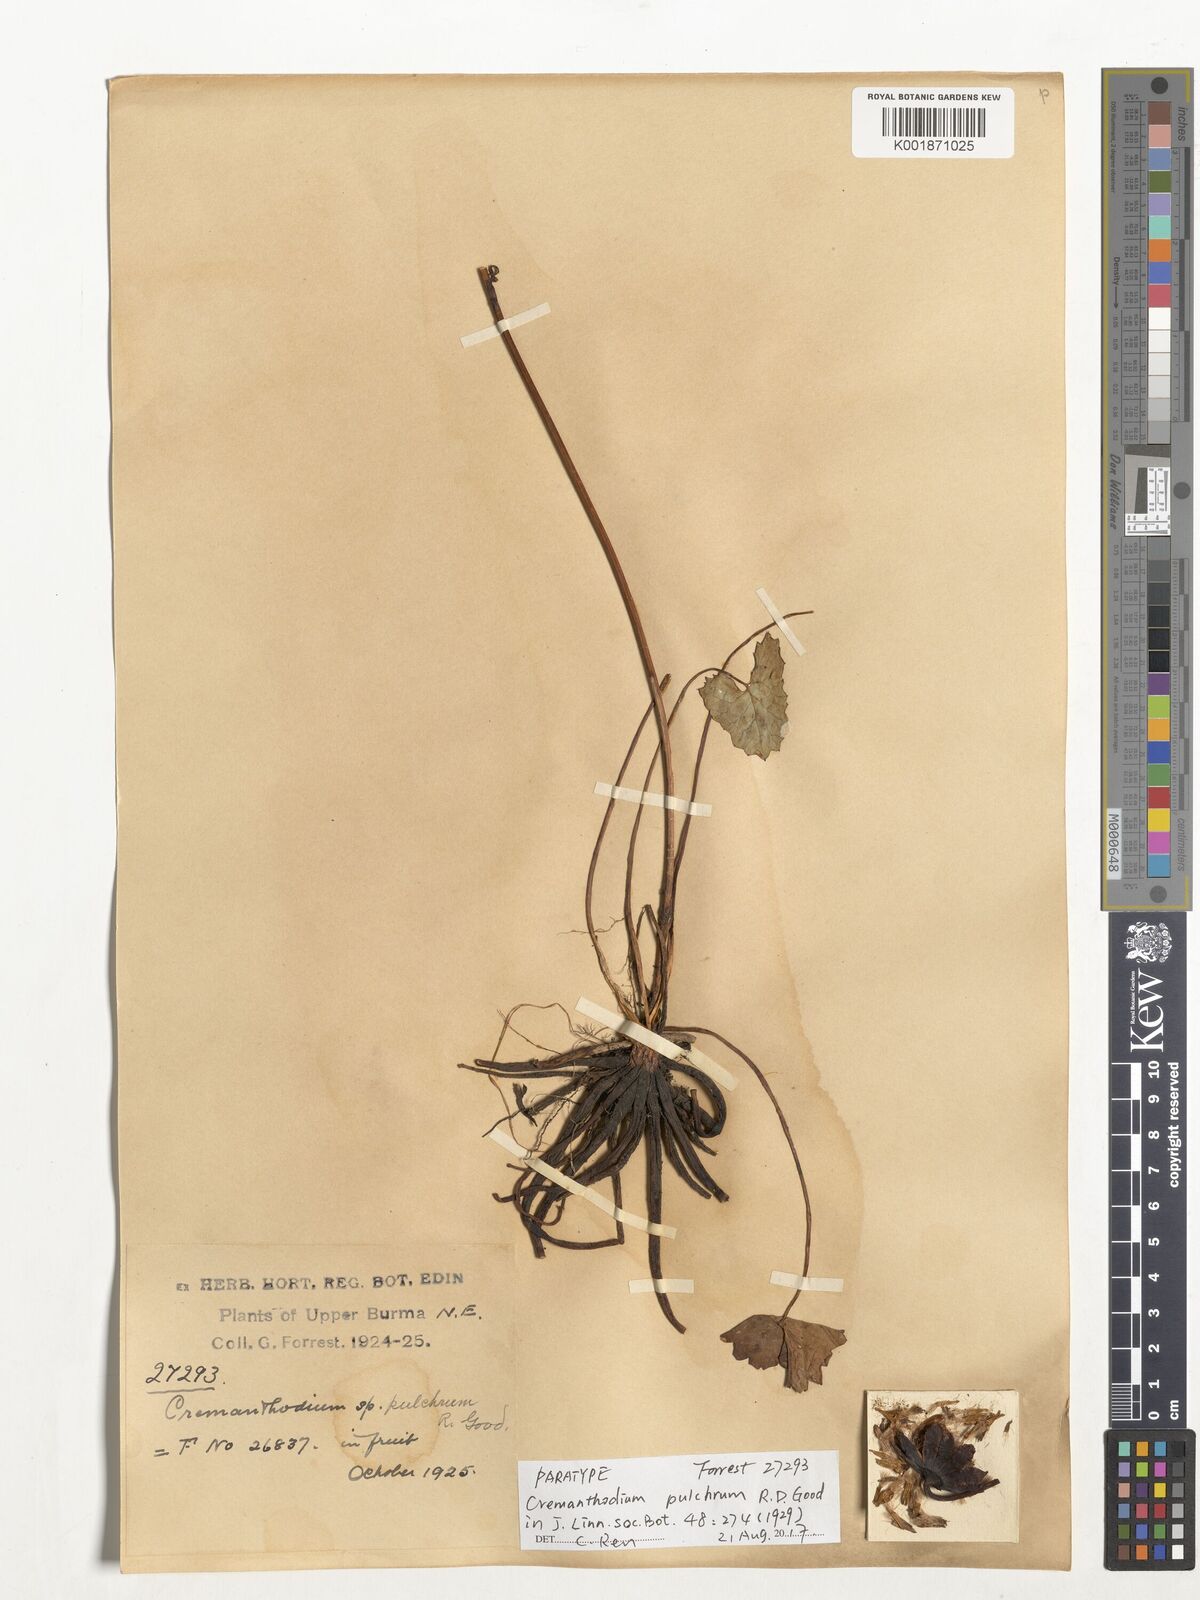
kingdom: Plantae
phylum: Tracheophyta
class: Magnoliopsida
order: Asterales
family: Asteraceae
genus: Cremanthodium
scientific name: Cremanthodium pulchrum
